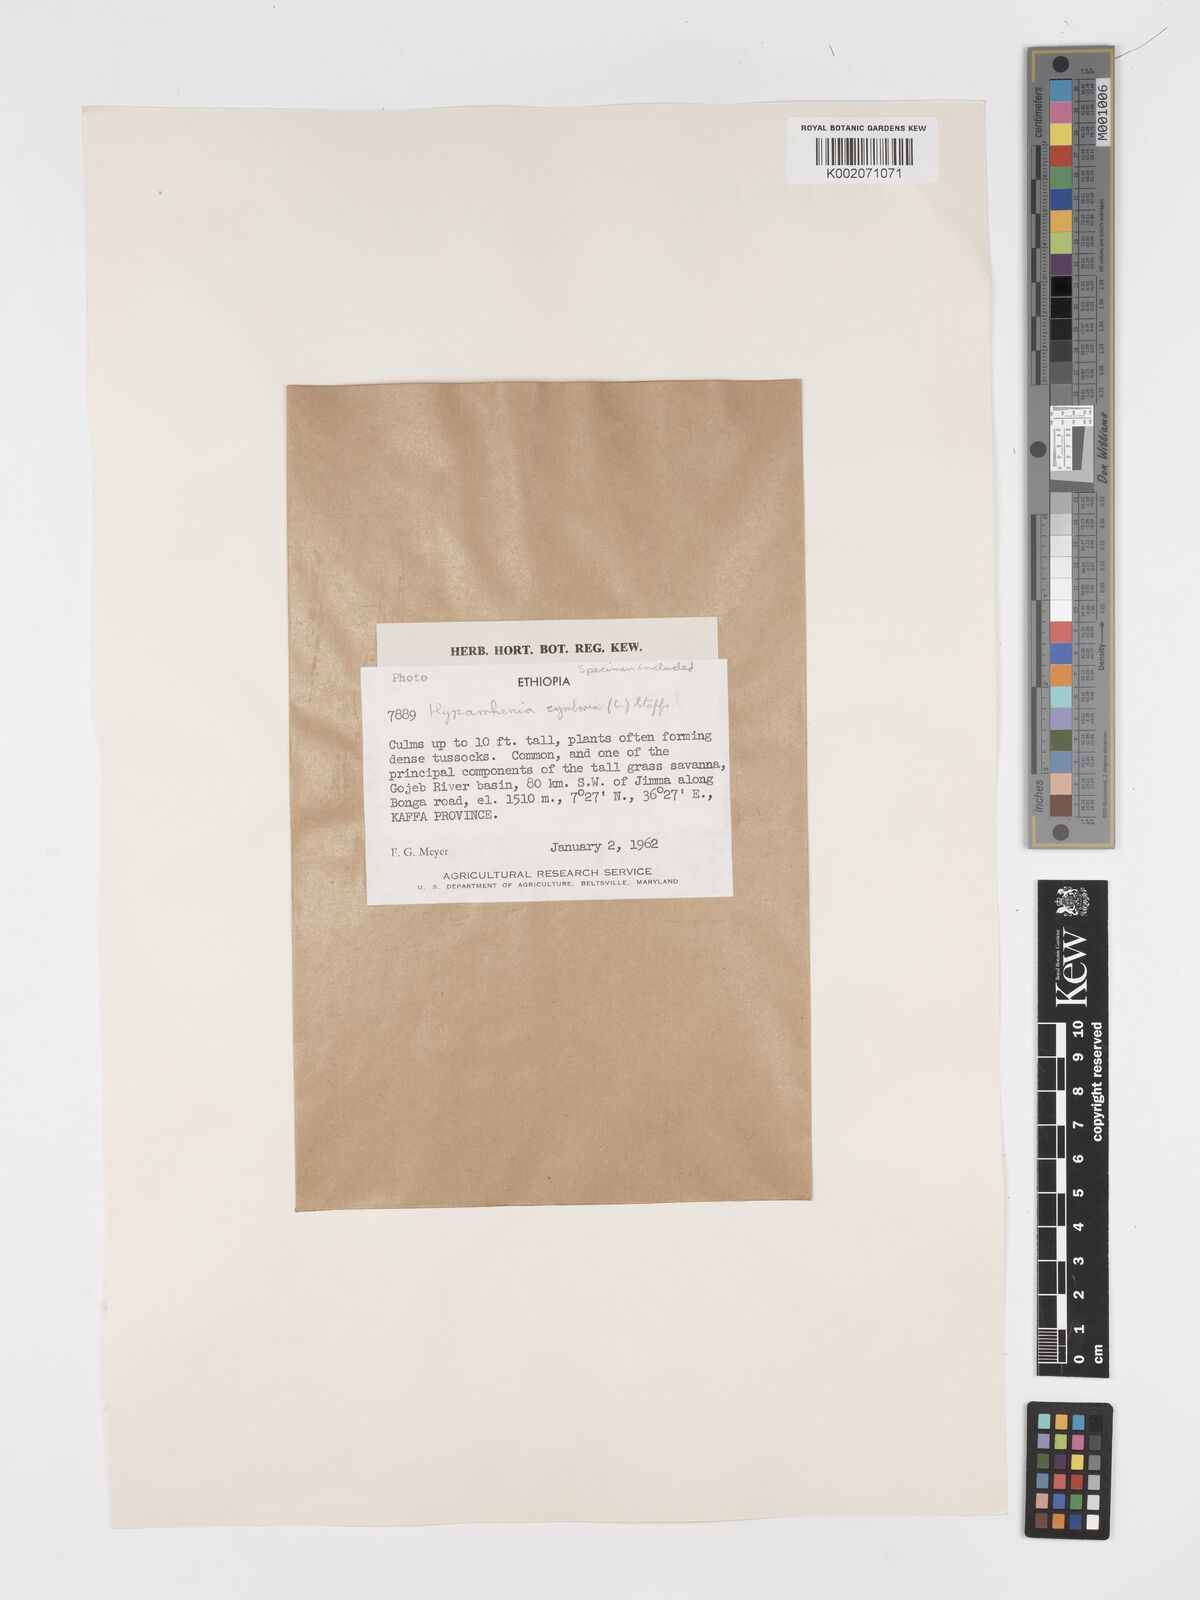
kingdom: Plantae
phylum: Tracheophyta
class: Liliopsida
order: Poales
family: Poaceae
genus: Hyparrhenia
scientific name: Hyparrhenia cymbaria
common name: Boat thatching grass
